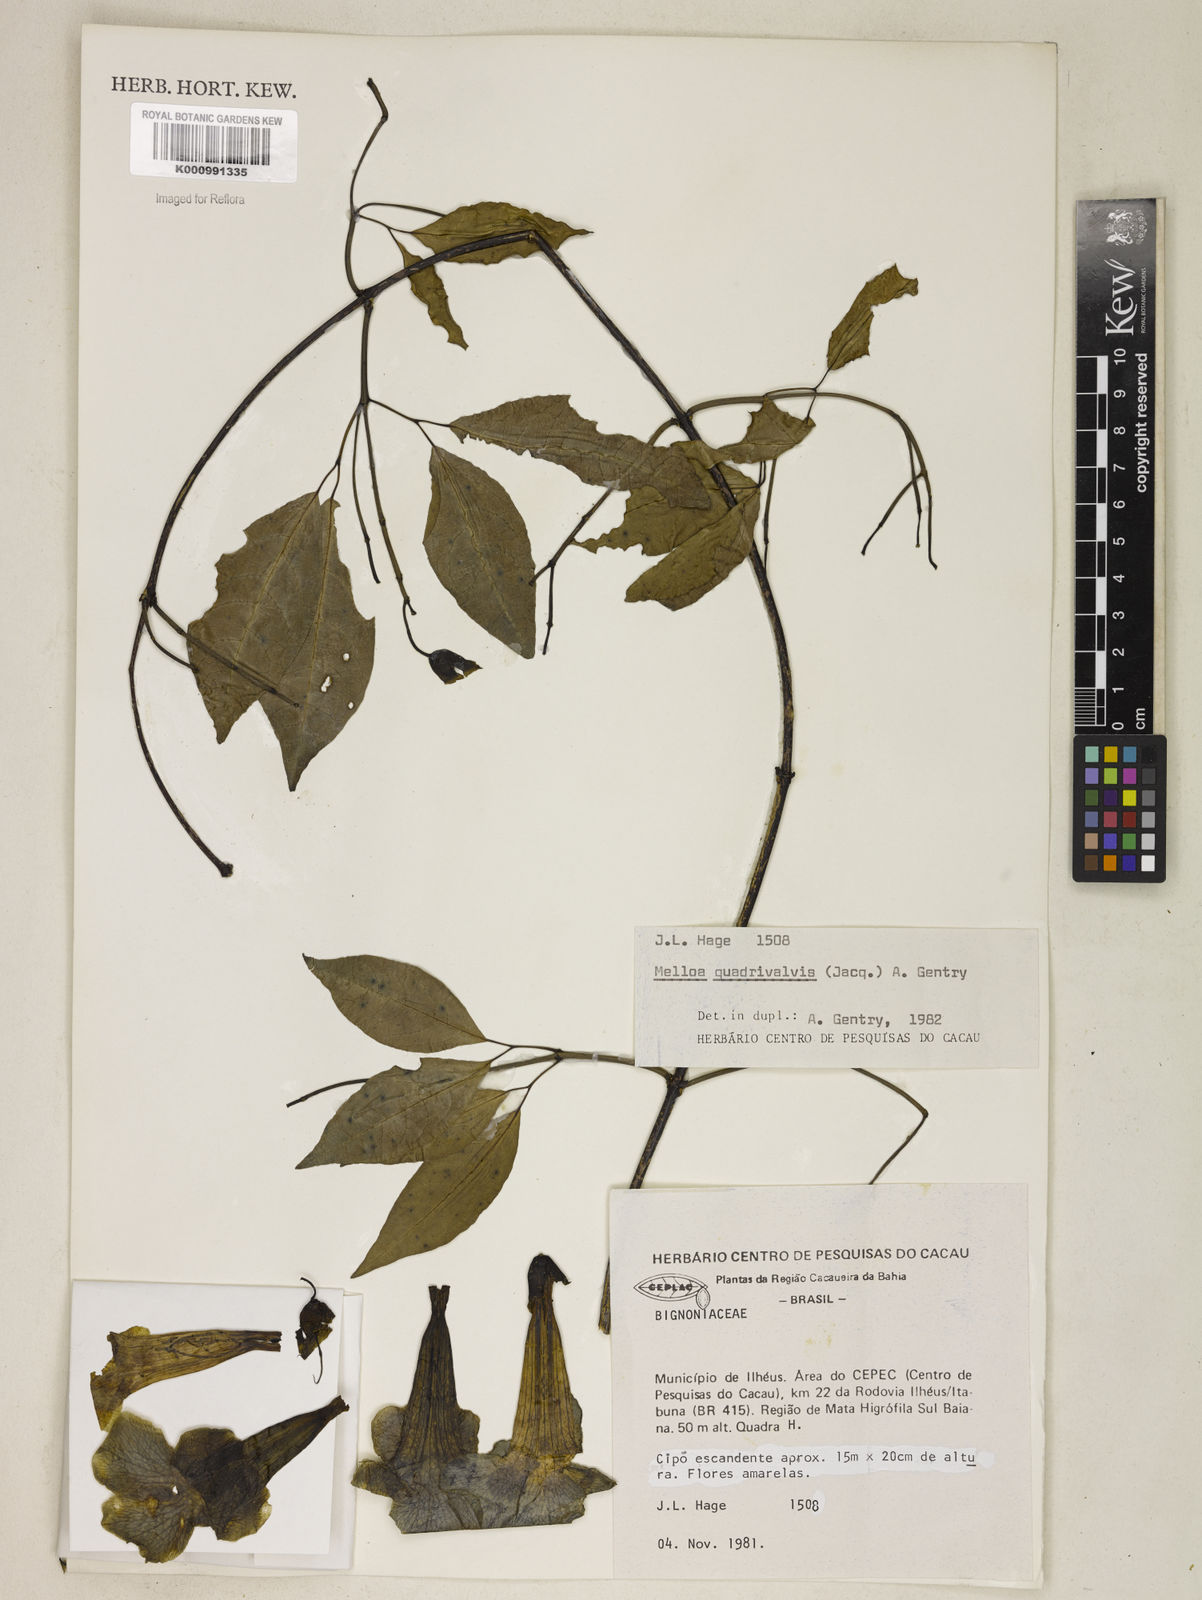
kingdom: Plantae
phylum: Tracheophyta
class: Magnoliopsida
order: Lamiales
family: Bignoniaceae
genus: Dolichandra
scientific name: Dolichandra quadrivalvis
